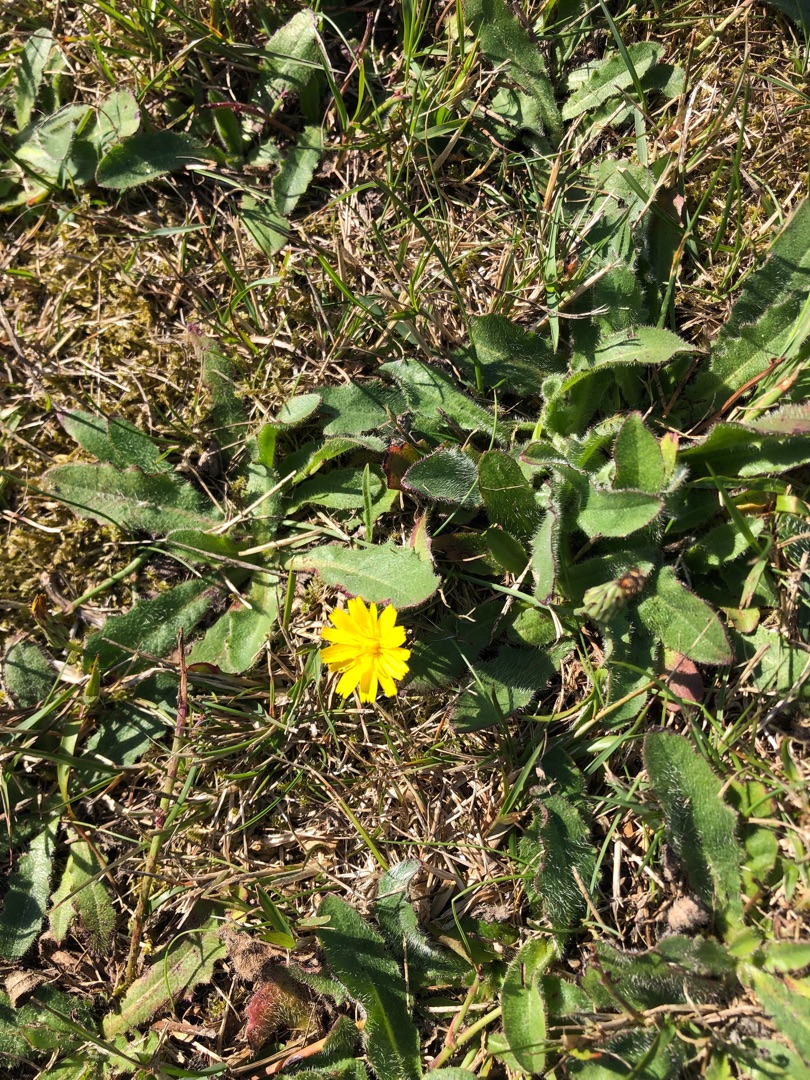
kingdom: Plantae
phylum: Tracheophyta
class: Magnoliopsida
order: Asterales
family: Asteraceae
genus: Hypochaeris
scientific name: Hypochaeris radicata
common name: Almindelig kongepen
